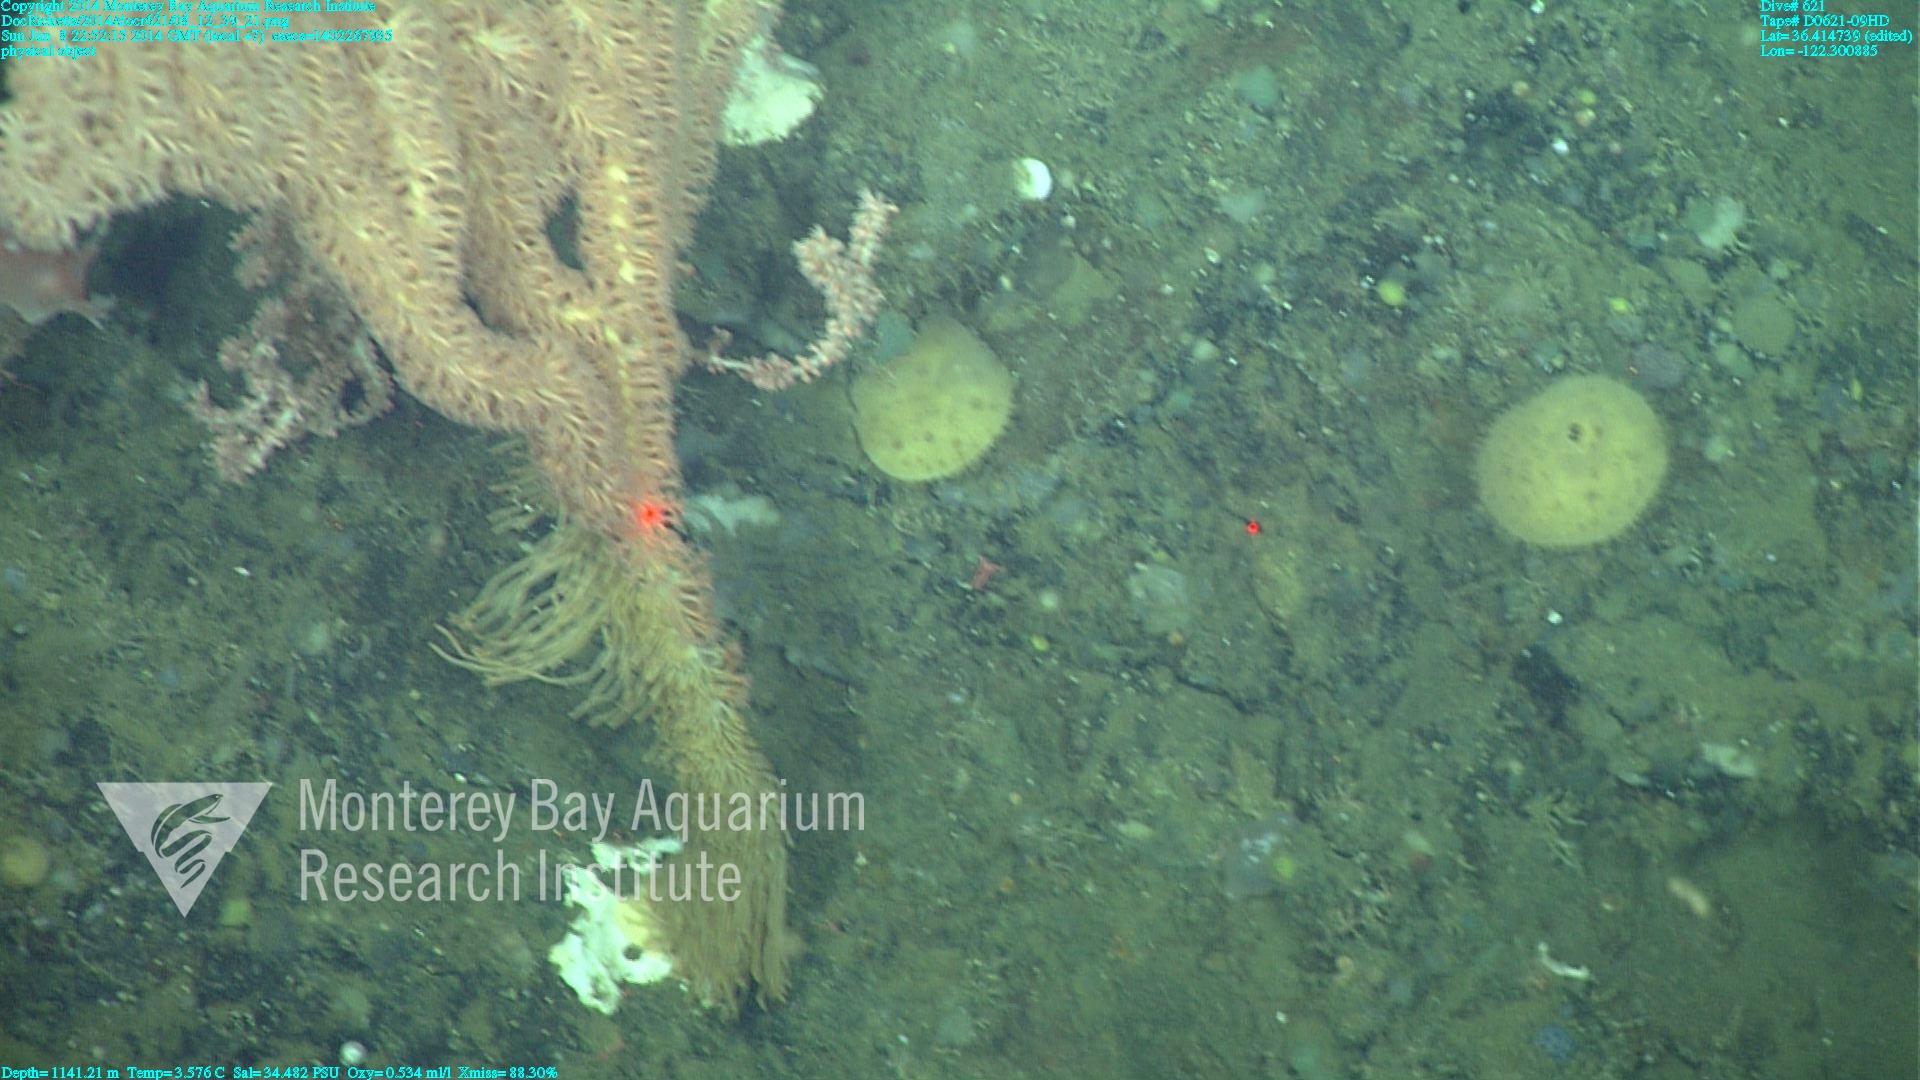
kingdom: Animalia
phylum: Cnidaria
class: Anthozoa
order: Scleralcyonacea
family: Keratoisididae
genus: Isidella
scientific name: Isidella tentaculum
